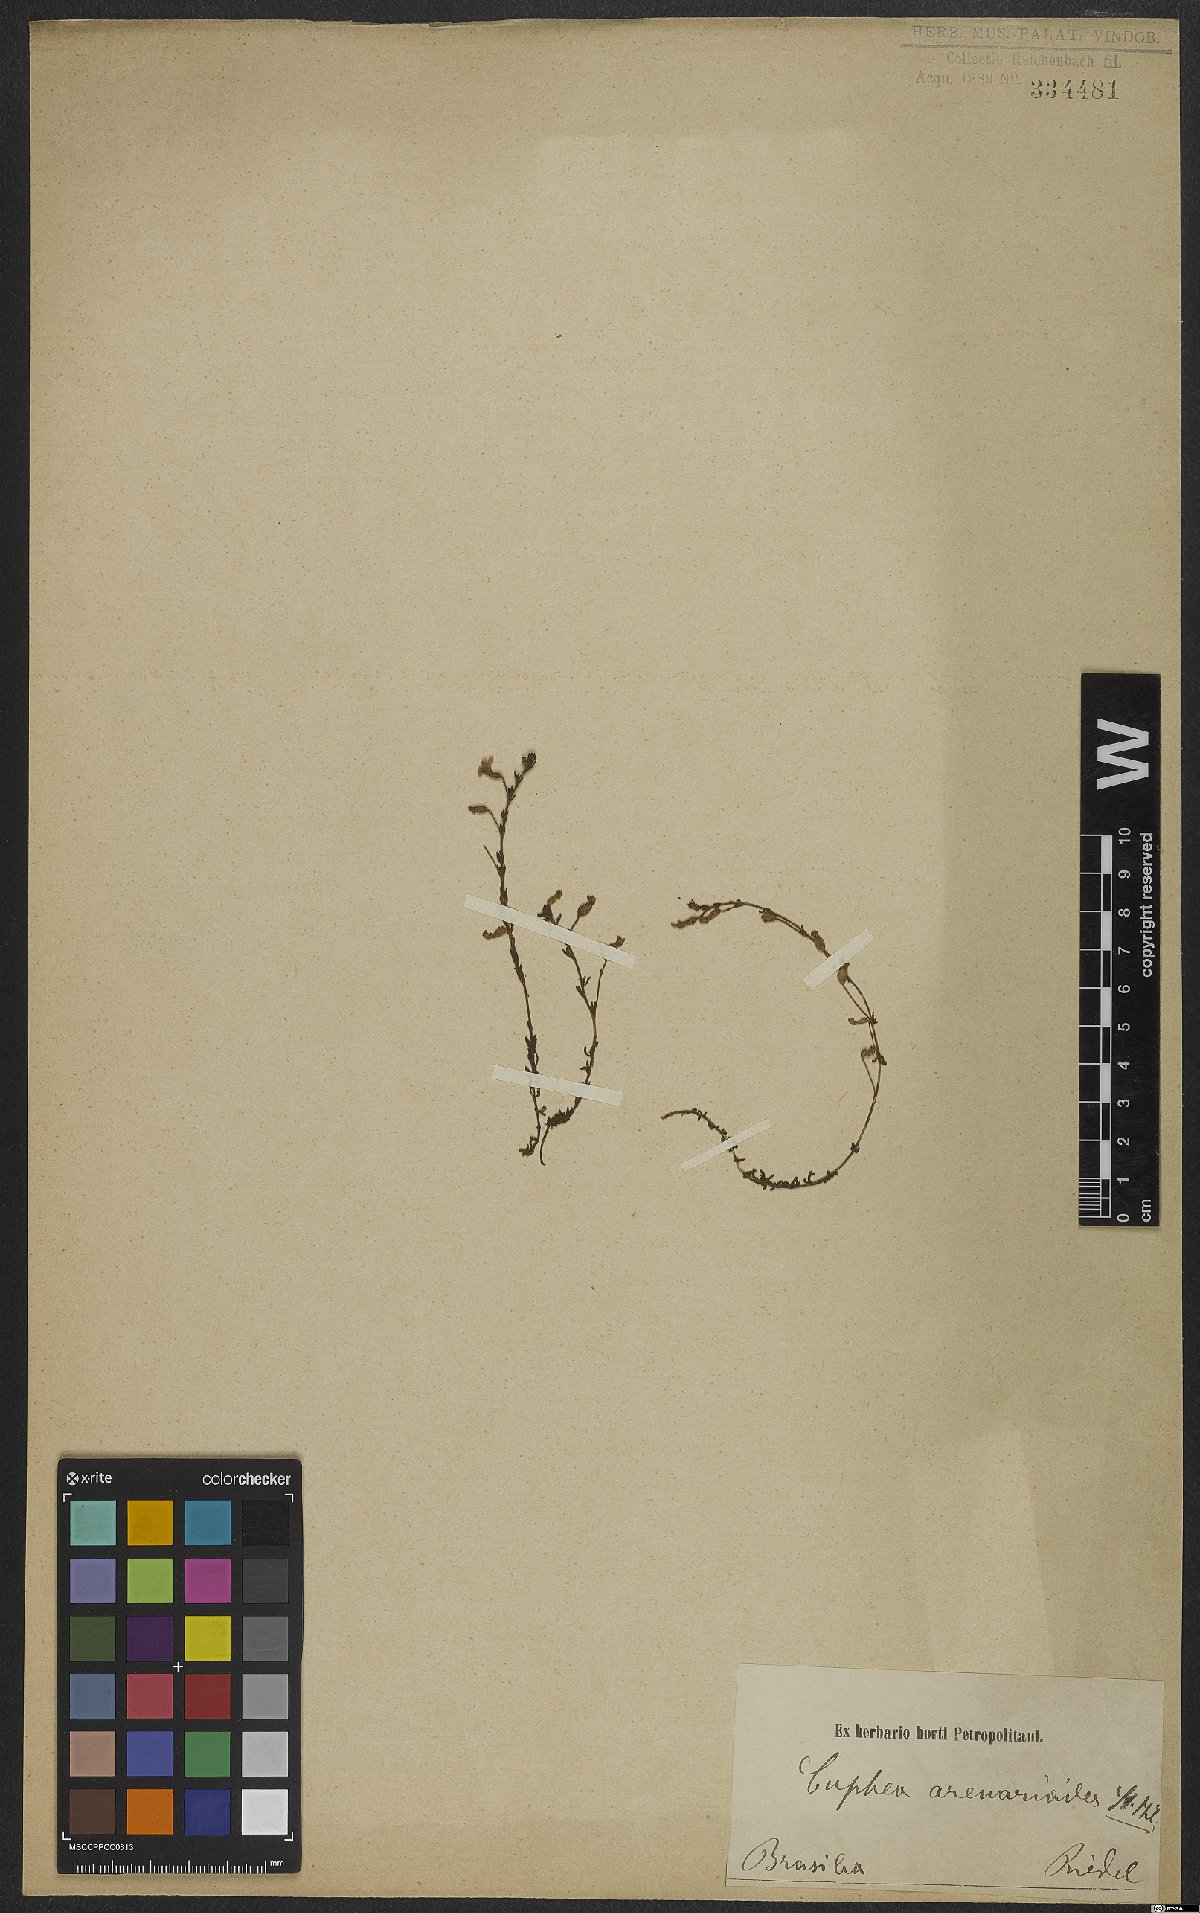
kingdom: Plantae
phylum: Tracheophyta
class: Magnoliopsida
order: Myrtales
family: Lythraceae
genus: Cuphea
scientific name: Cuphea arenarioides
